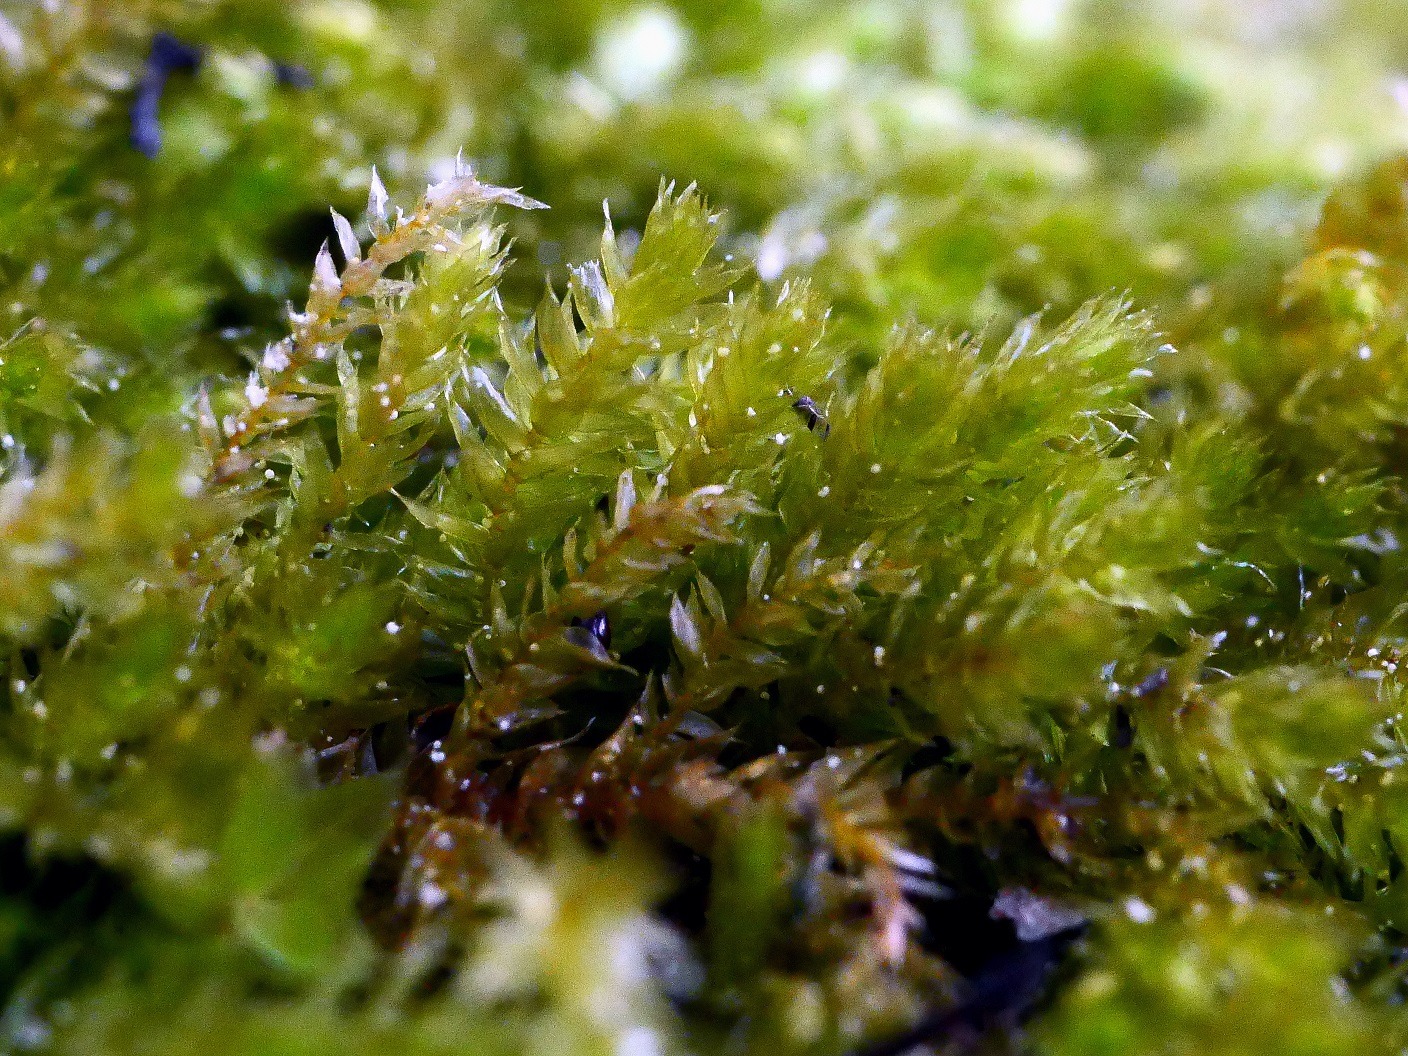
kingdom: Plantae
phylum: Bryophyta
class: Bryopsida
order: Hypnales
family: Brachytheciaceae
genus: Oxyrrhynchium
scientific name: Oxyrrhynchium schleicheri
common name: Vredet vortetand
